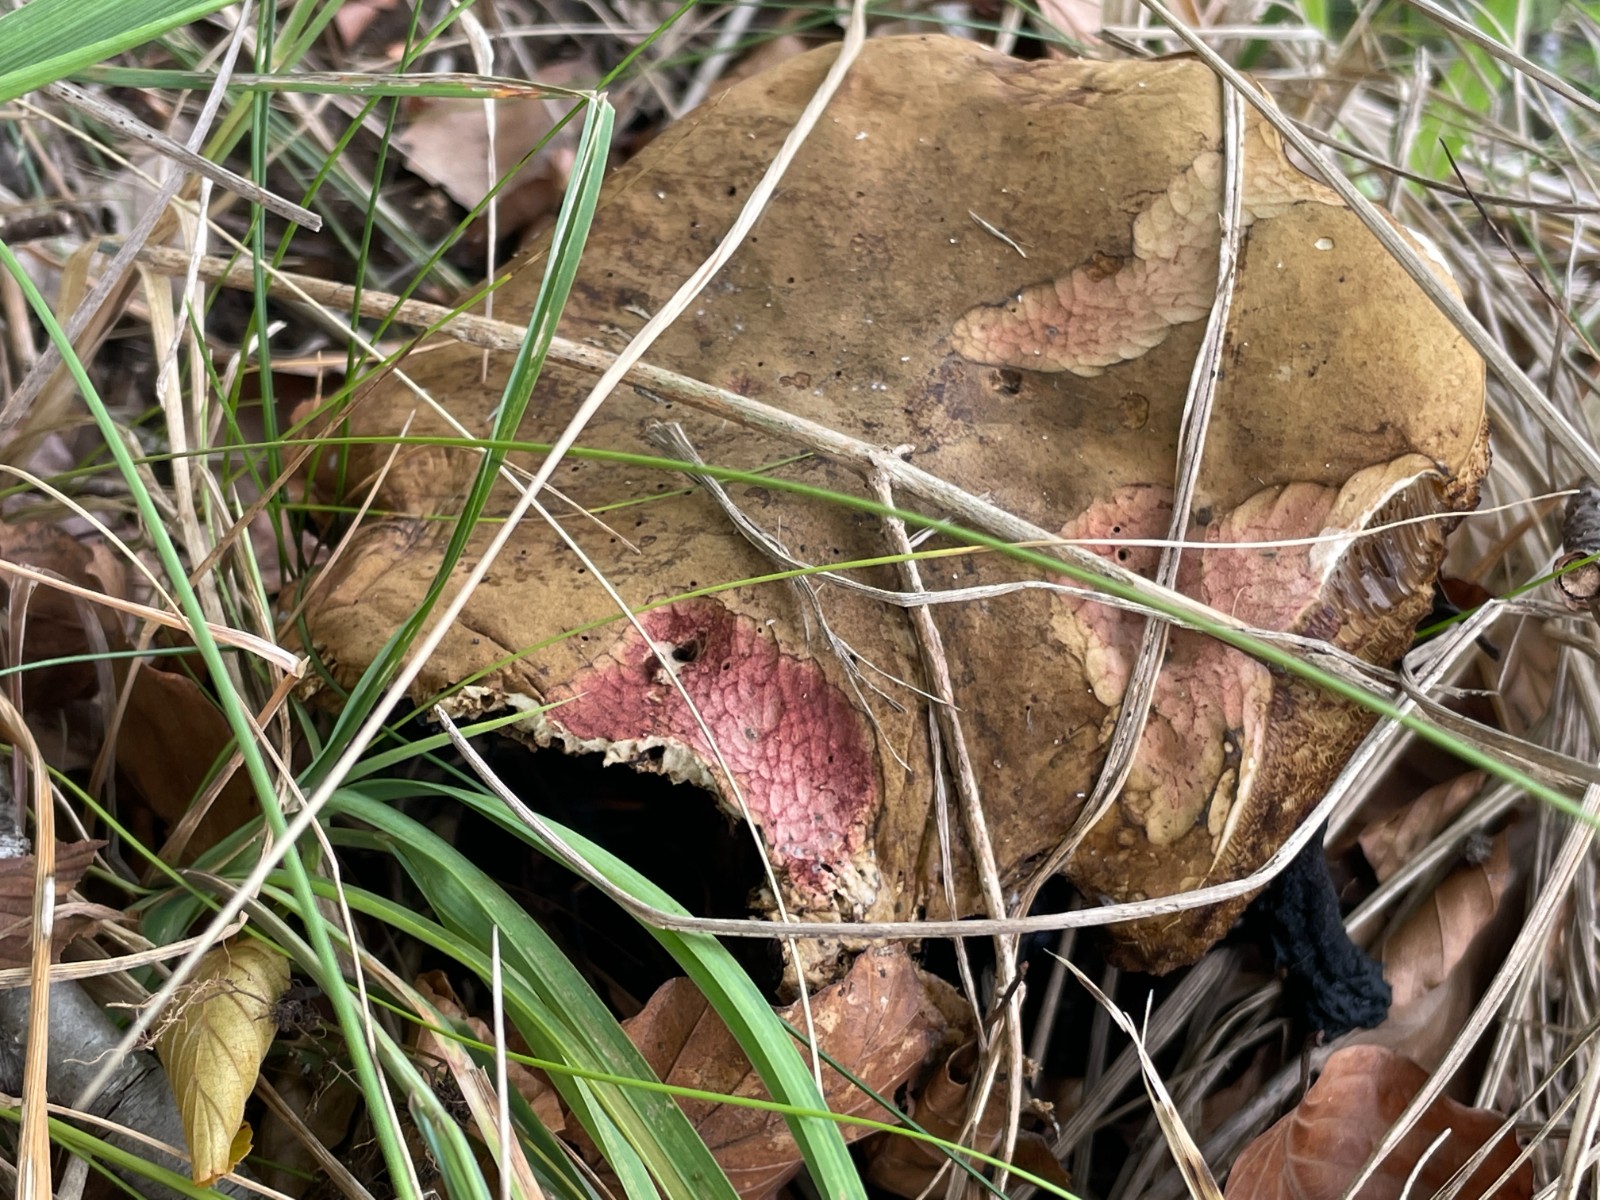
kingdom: Fungi
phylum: Basidiomycota
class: Agaricomycetes
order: Boletales
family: Boletaceae
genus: Suillellus
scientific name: Suillellus luridus
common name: netstokket indigorørhat
